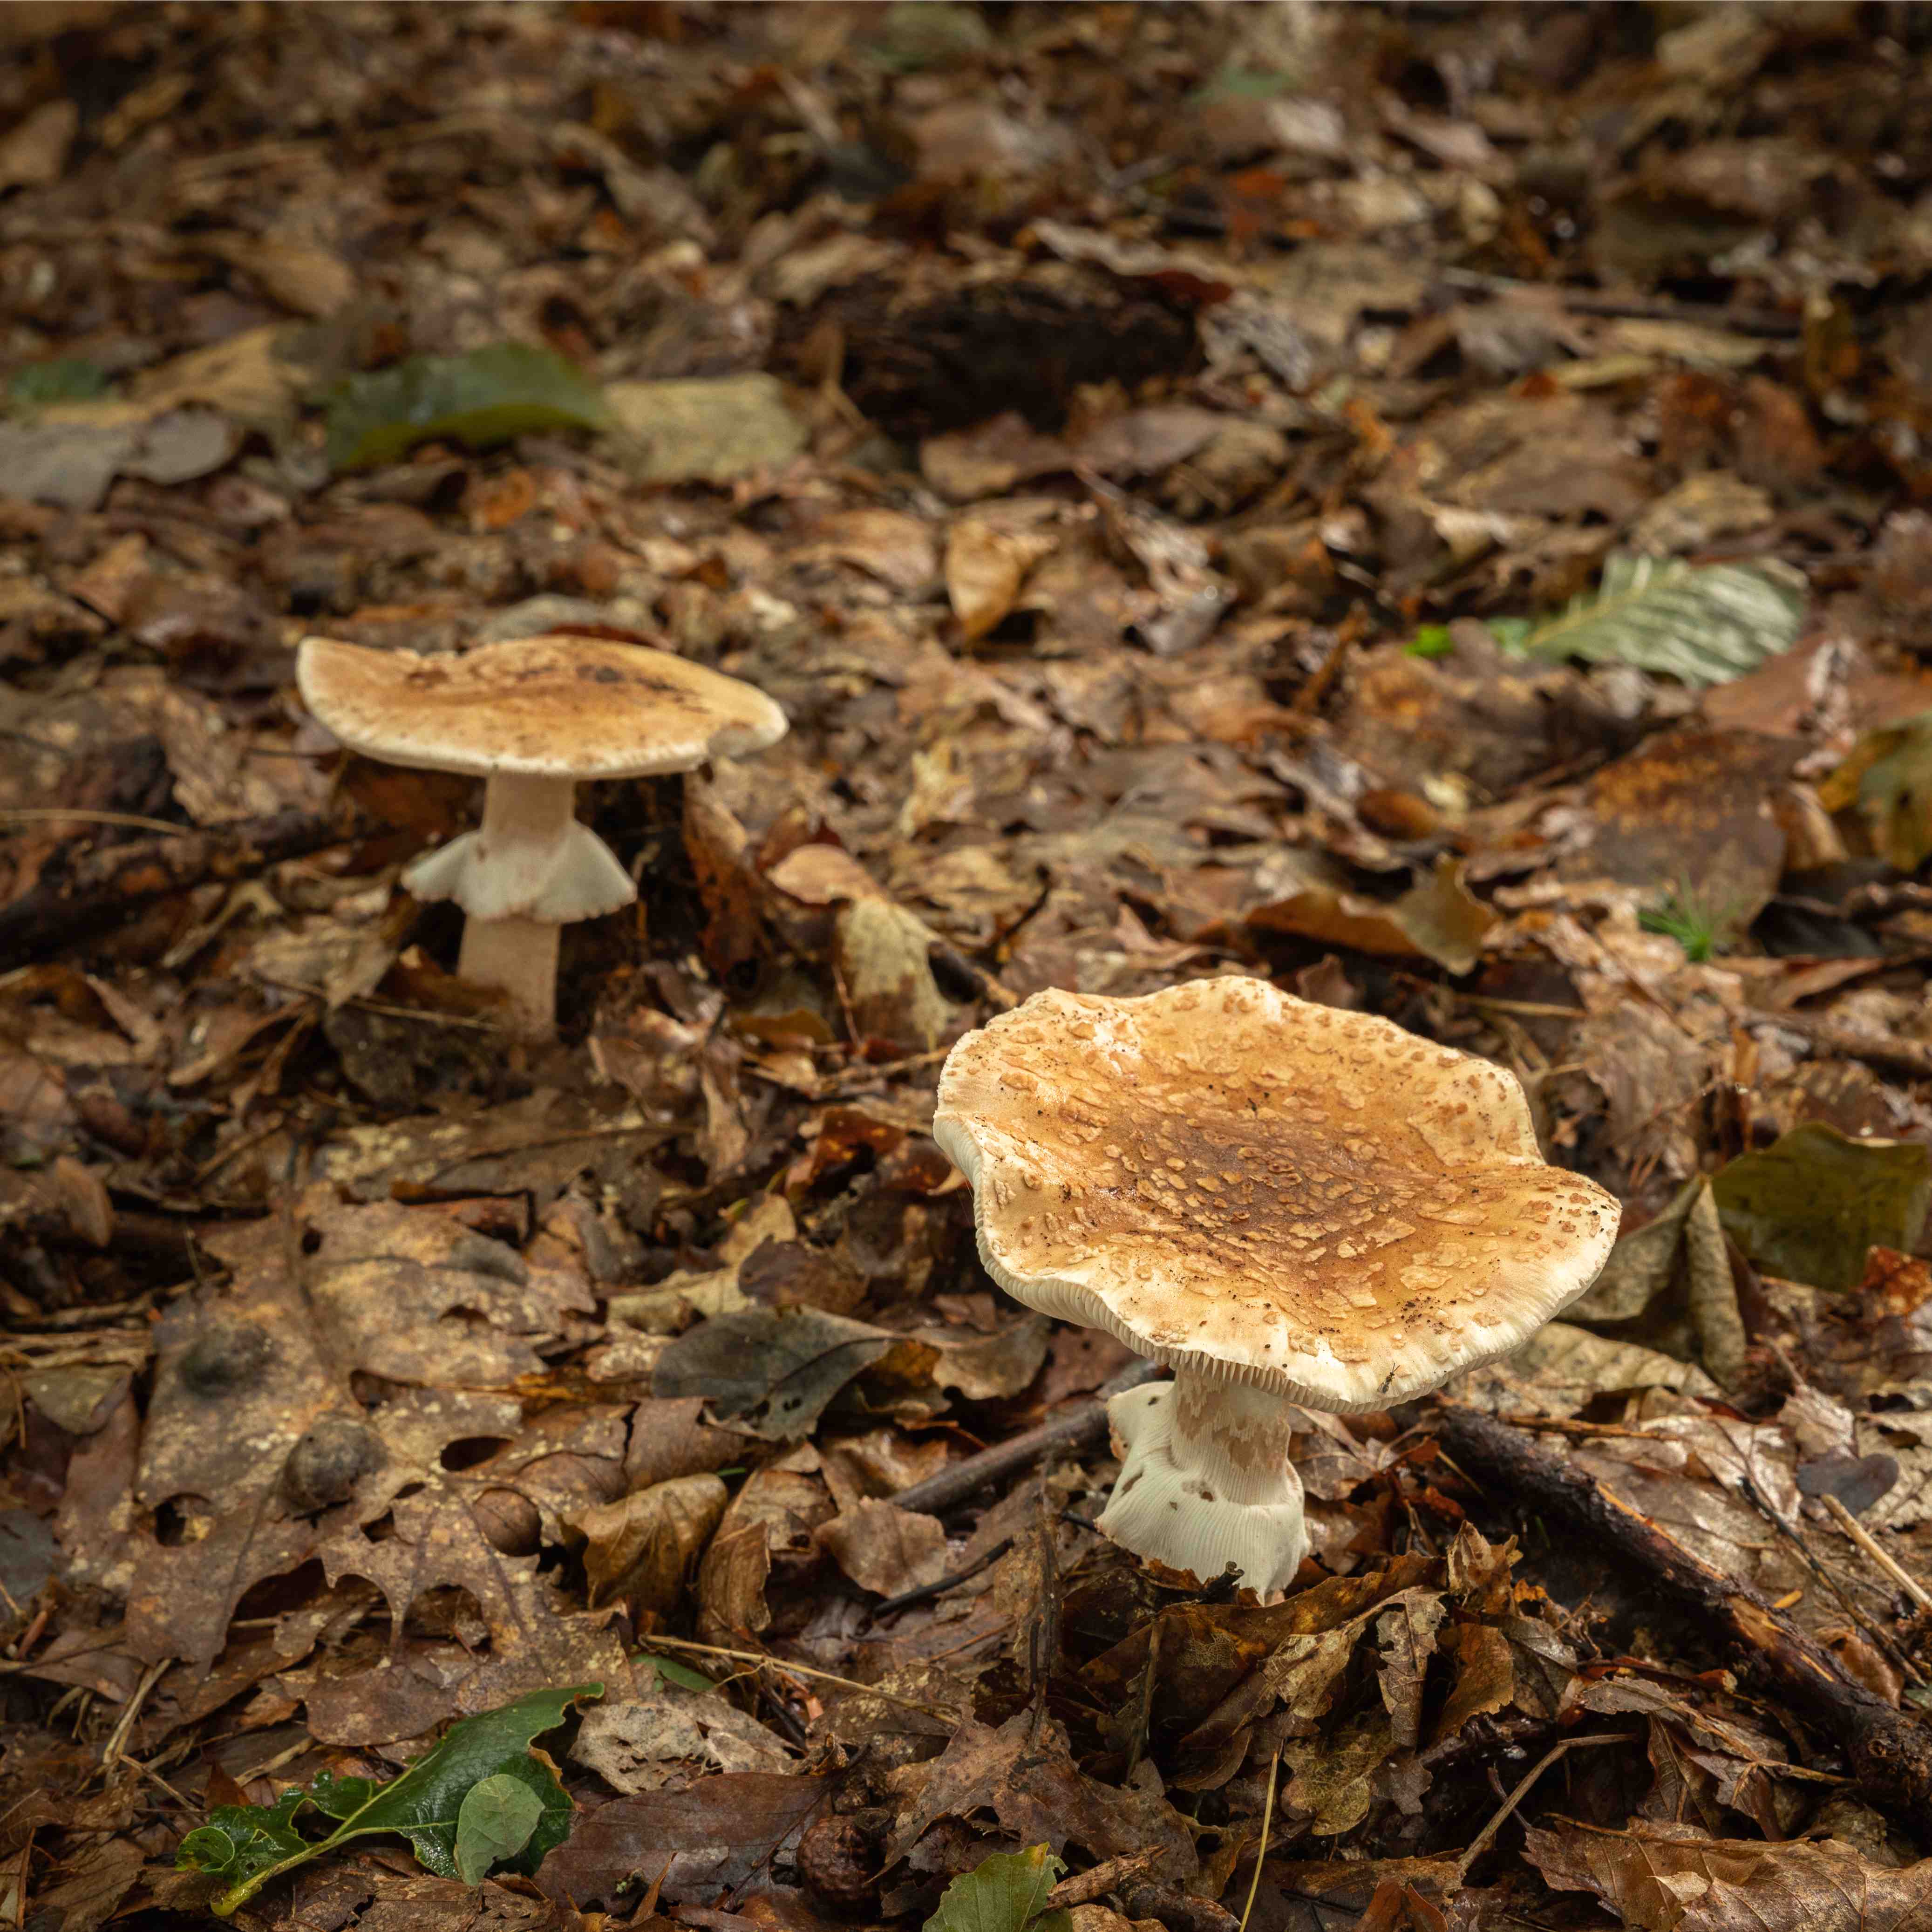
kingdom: Fungi
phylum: Basidiomycota
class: Agaricomycetes
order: Agaricales
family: Amanitaceae
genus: Amanita
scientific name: Amanita rubescens
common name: rødmende fluesvamp
